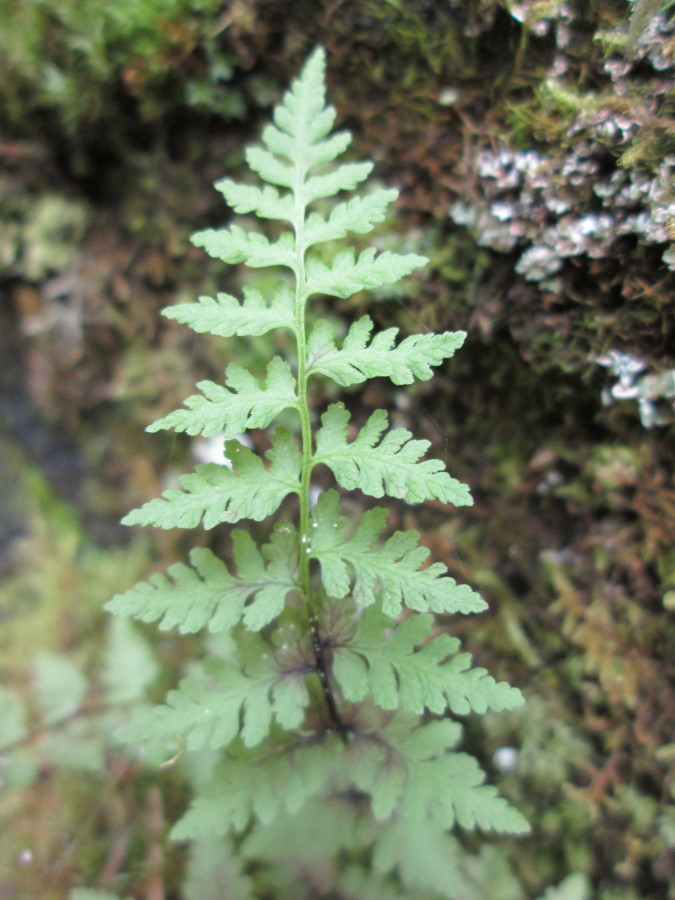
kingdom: Plantae
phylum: Tracheophyta
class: Polypodiopsida
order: Polypodiales
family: Cystopteridaceae
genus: Cystopteris
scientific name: Cystopteris fragilis
